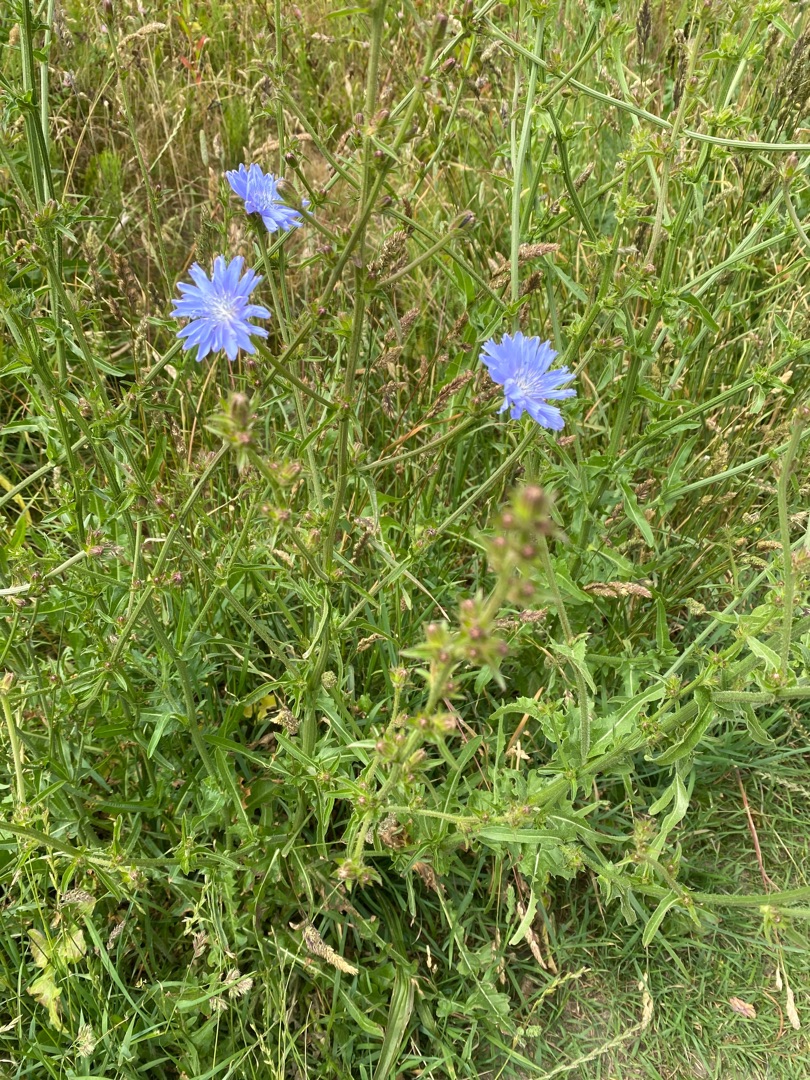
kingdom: Plantae
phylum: Tracheophyta
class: Magnoliopsida
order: Asterales
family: Asteraceae
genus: Cichorium
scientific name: Cichorium intybus
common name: Cikorie
